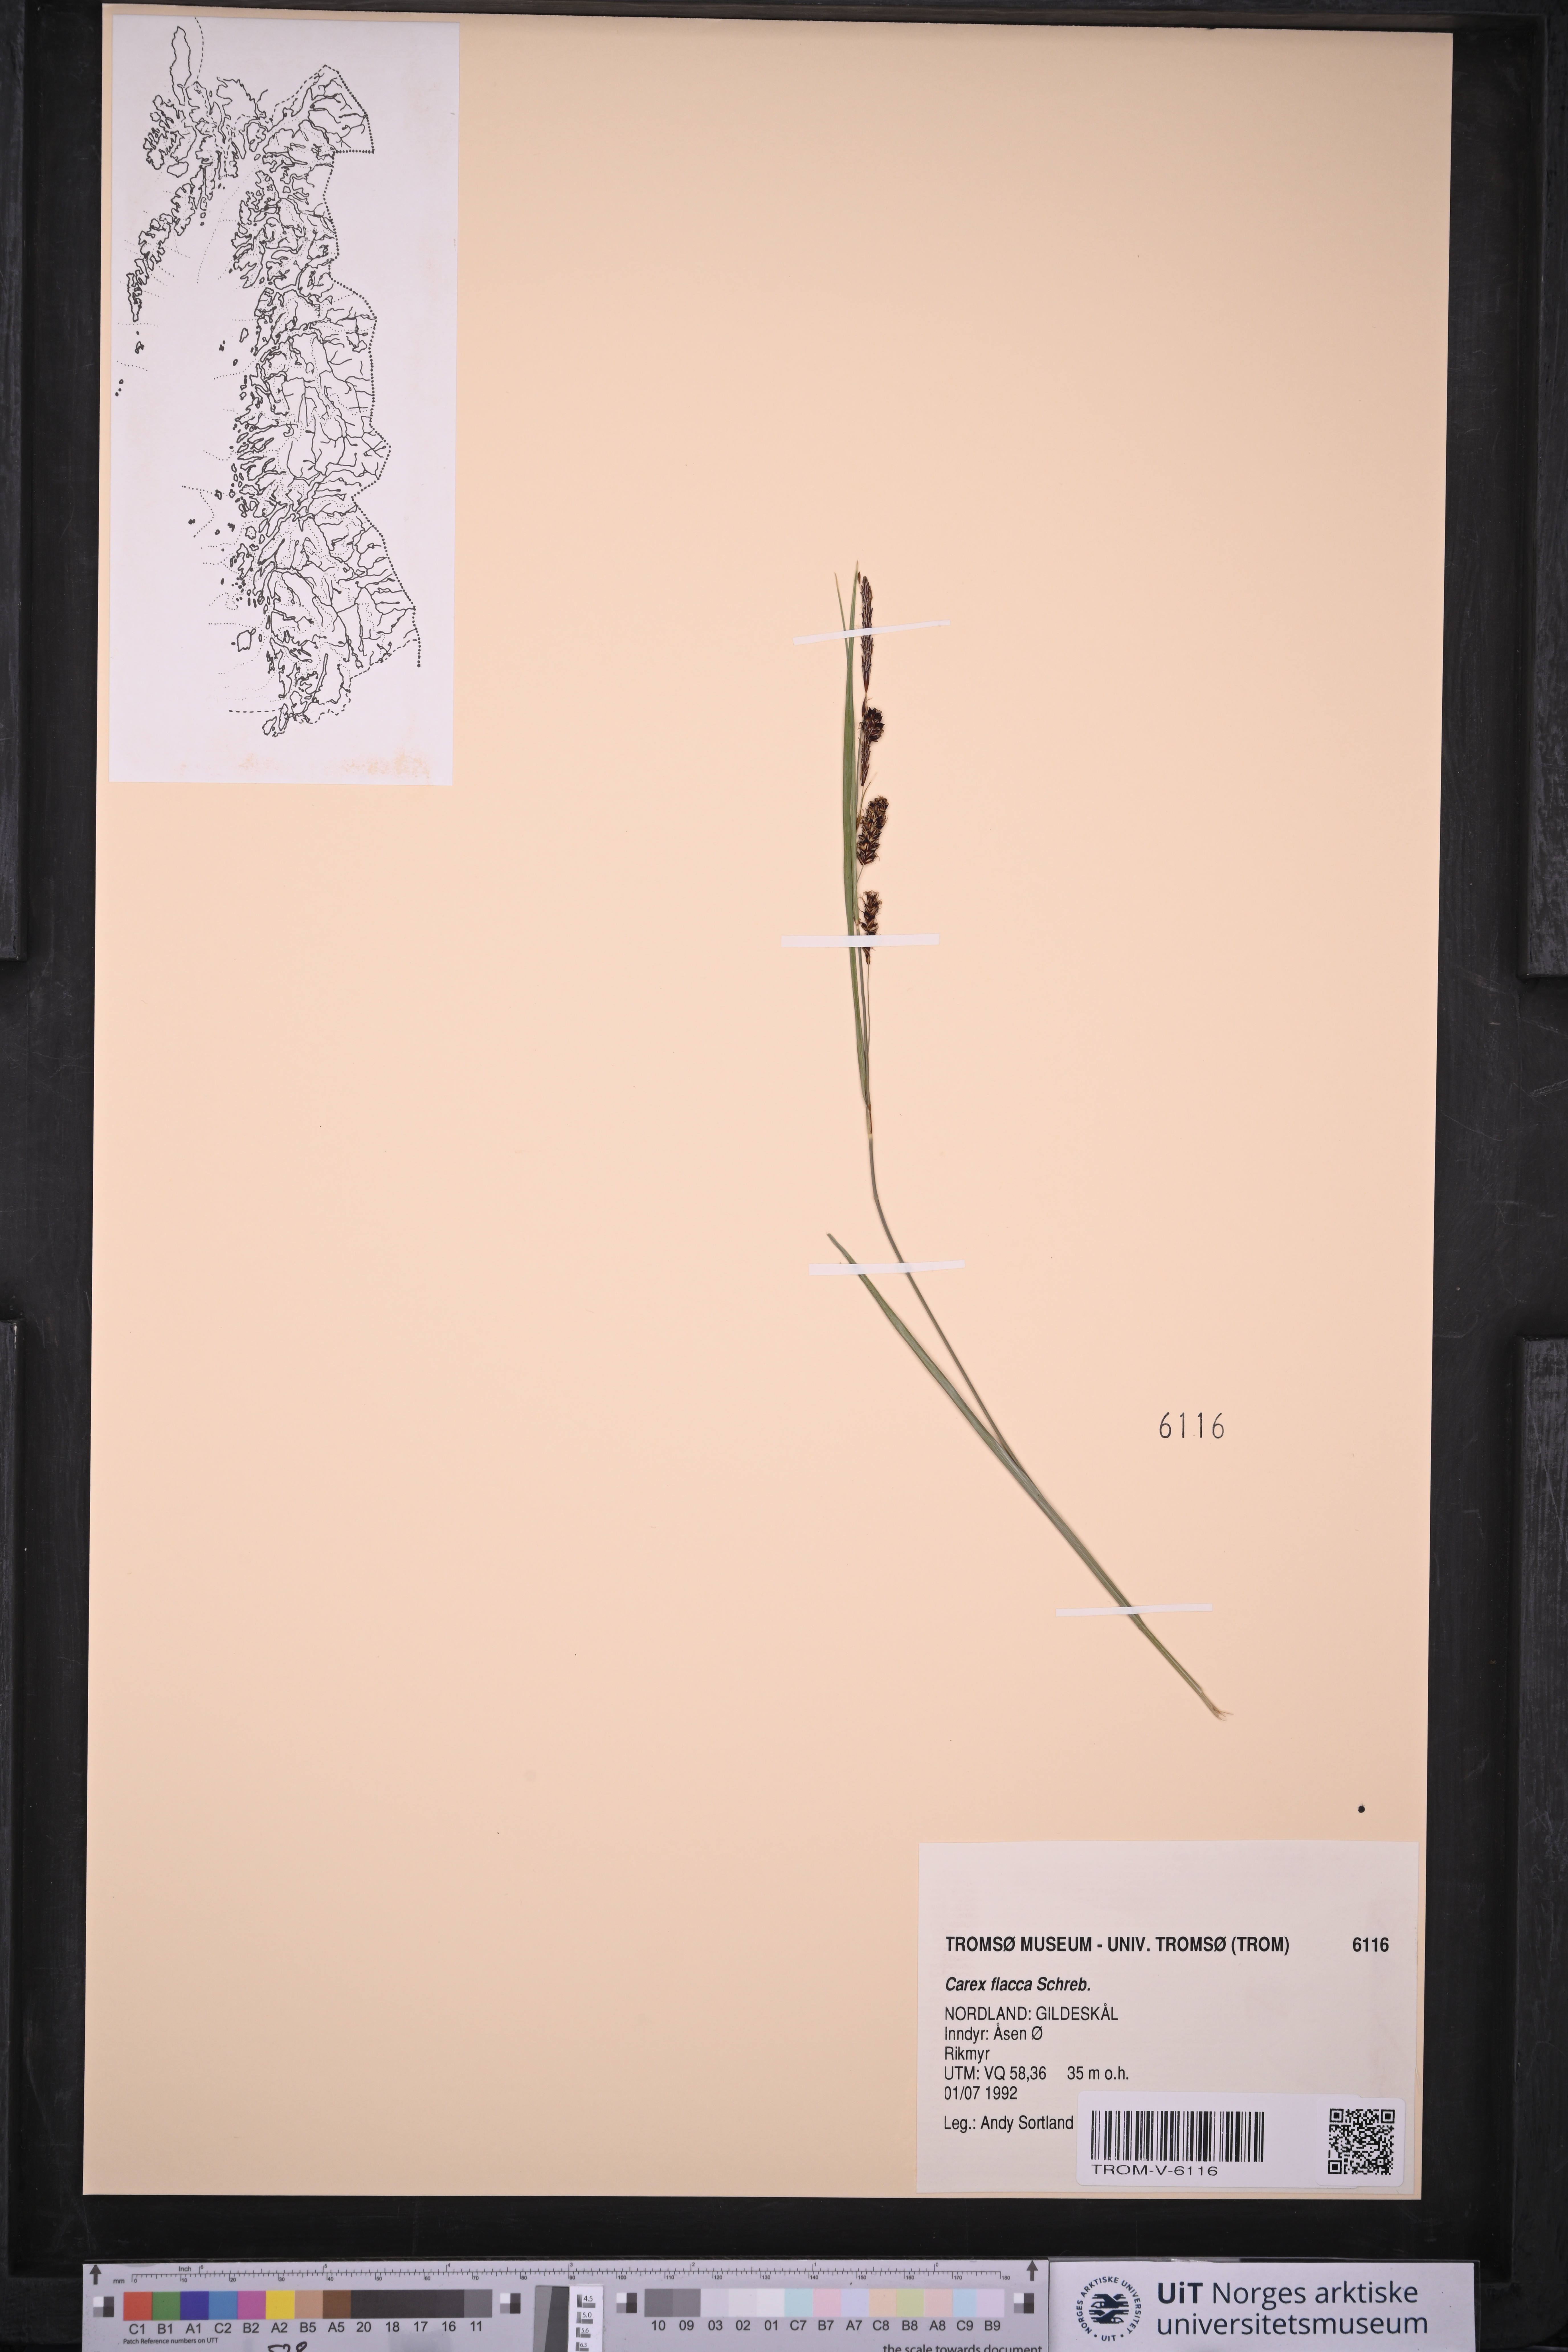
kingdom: Plantae
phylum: Tracheophyta
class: Liliopsida
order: Poales
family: Cyperaceae
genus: Carex
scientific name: Carex flacca
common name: Glaucous sedge
